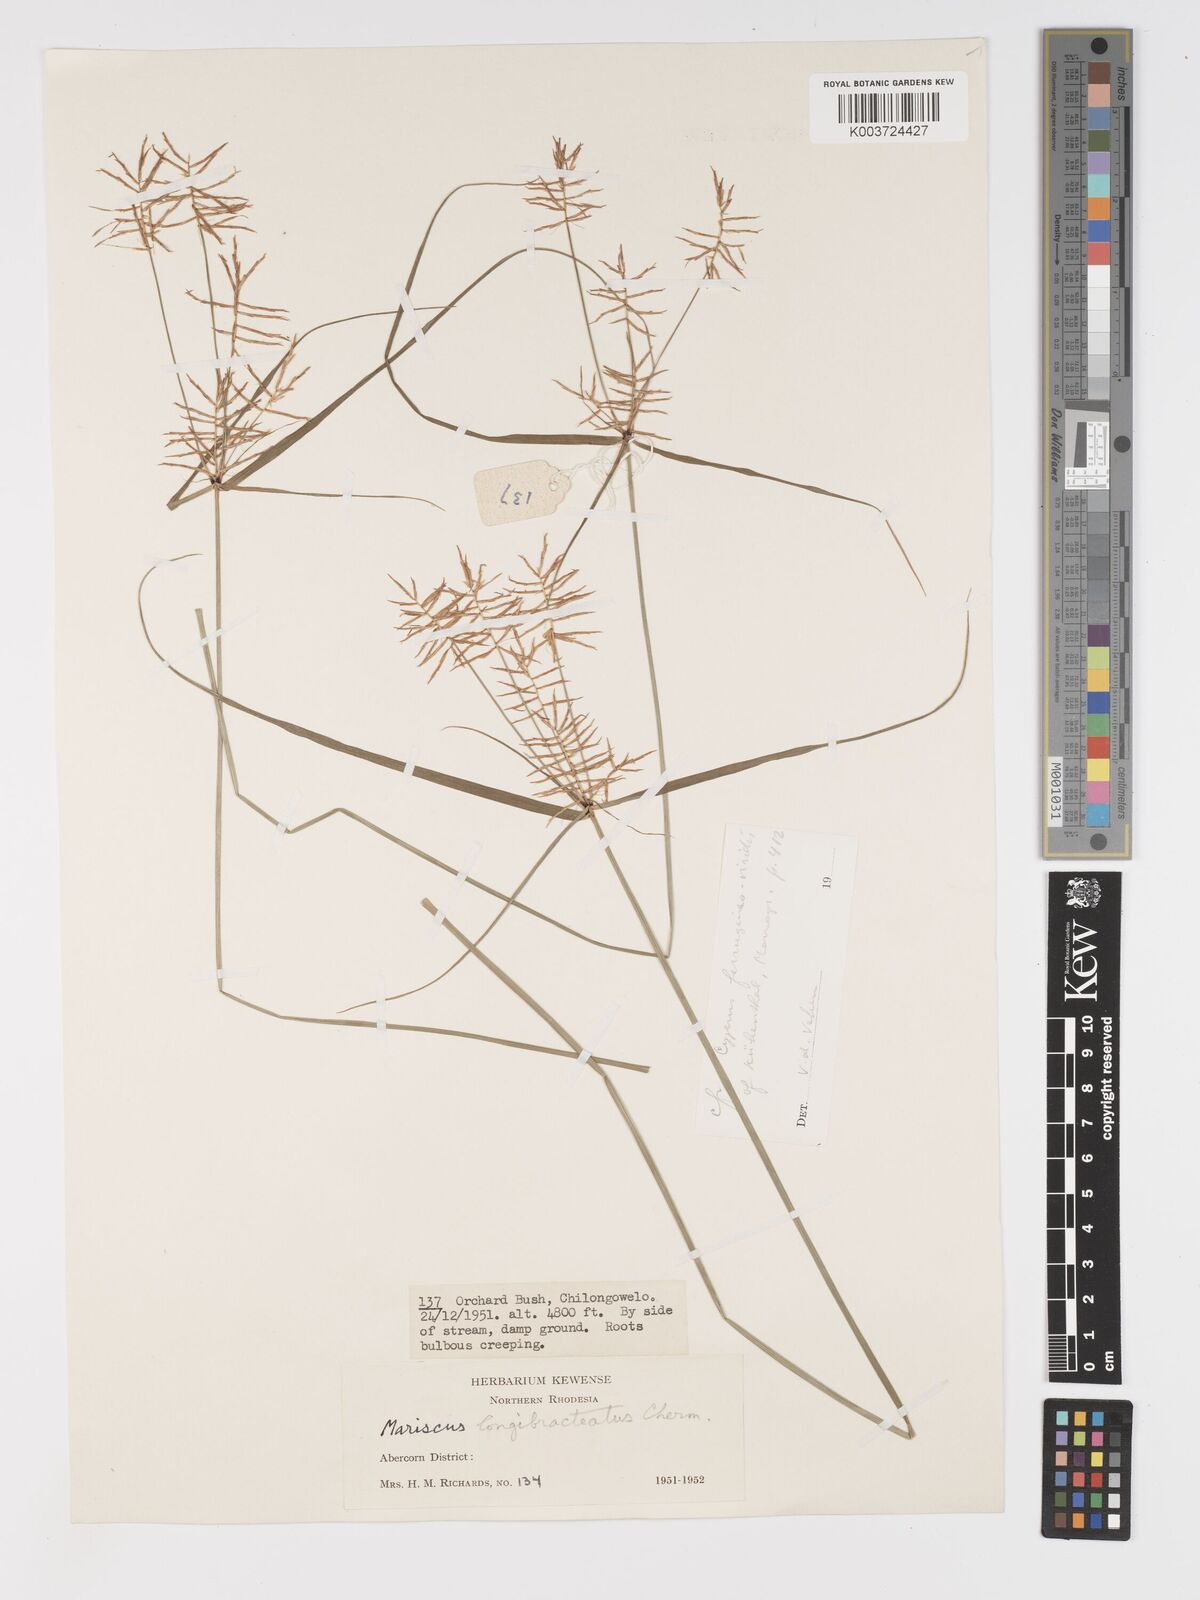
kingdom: Plantae
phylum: Tracheophyta
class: Liliopsida
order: Poales
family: Cyperaceae
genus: Cyperus
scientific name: Cyperus ferrugineoviridis
